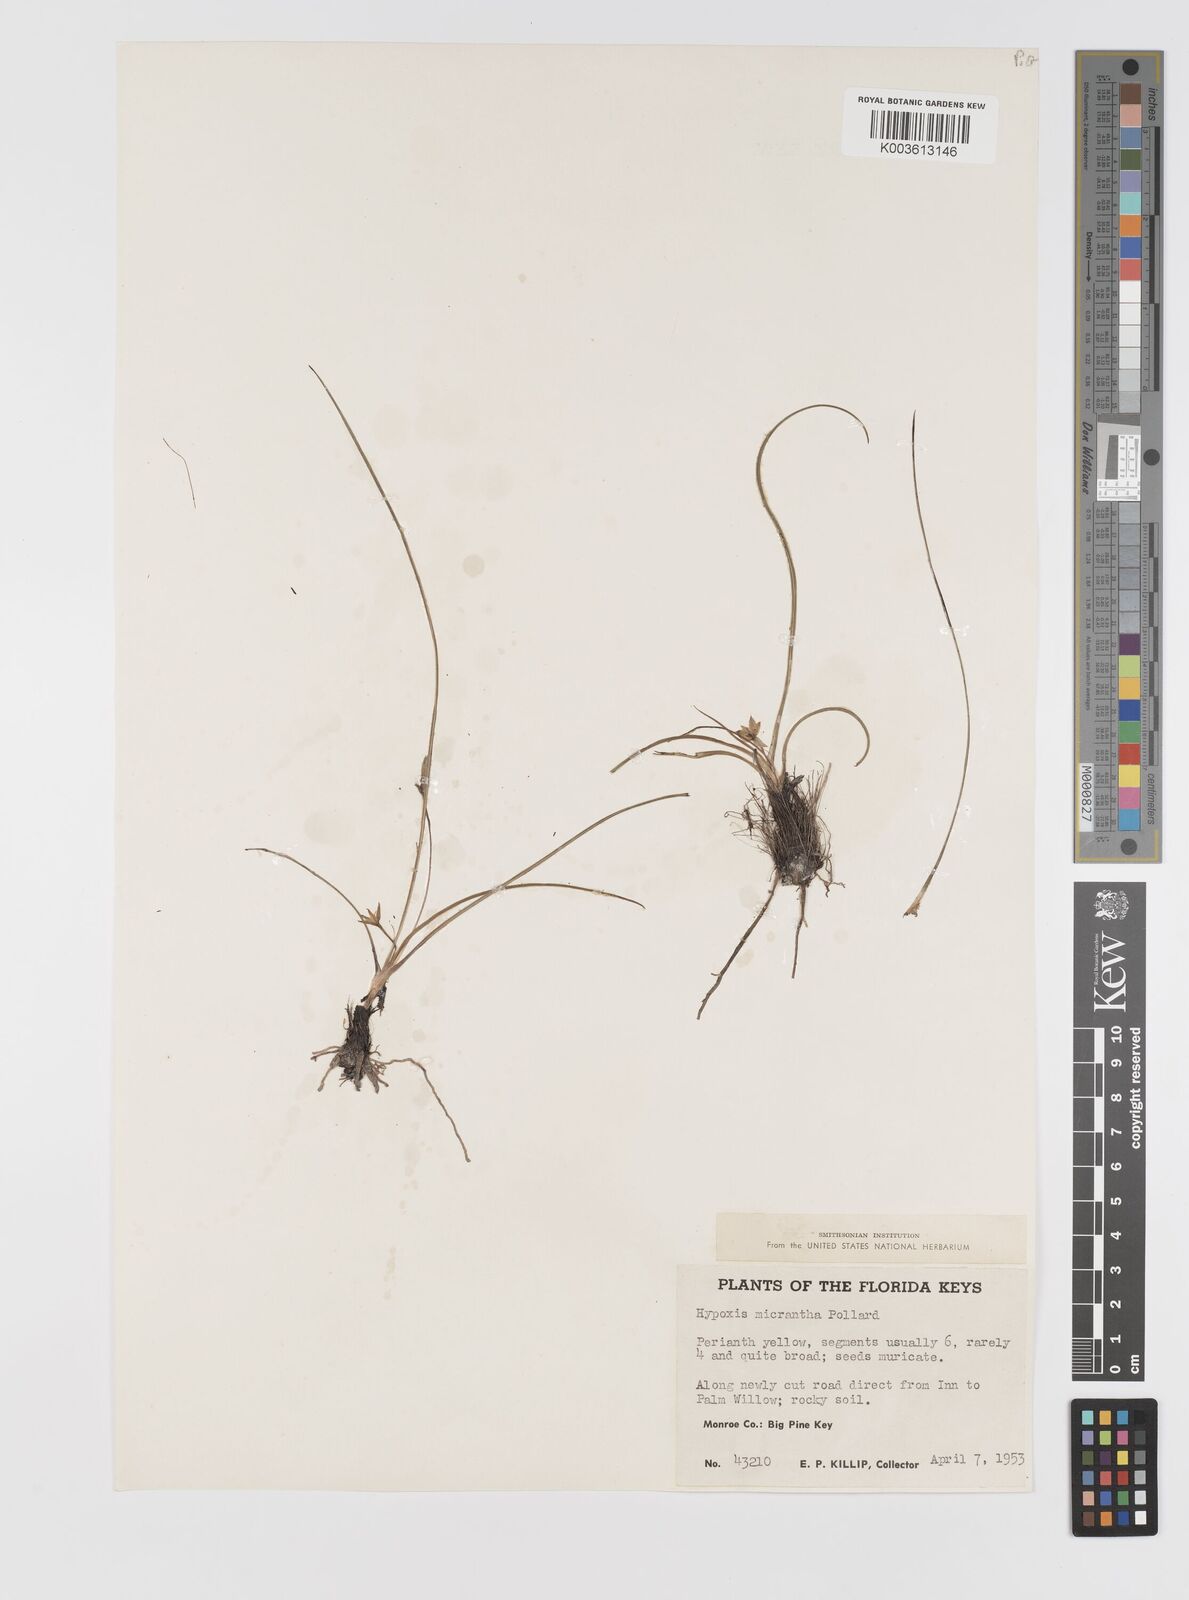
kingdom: Plantae
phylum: Tracheophyta
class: Liliopsida
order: Asparagales
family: Hypoxidaceae
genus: Hypoxis
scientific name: Hypoxis hirsuta
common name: Common goldstar
